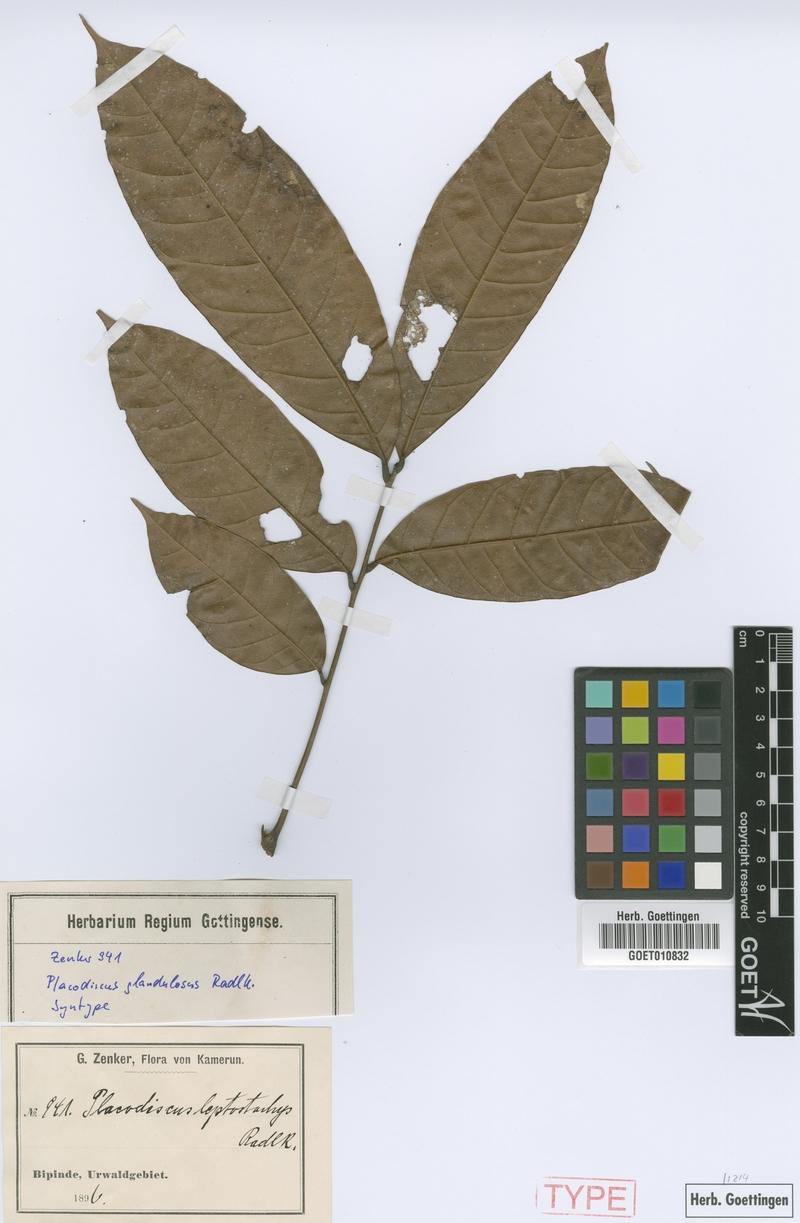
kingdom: Plantae
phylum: Tracheophyta
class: Magnoliopsida
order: Sapindales
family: Sapindaceae
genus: Placodiscus
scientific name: Placodiscus glandulosus
